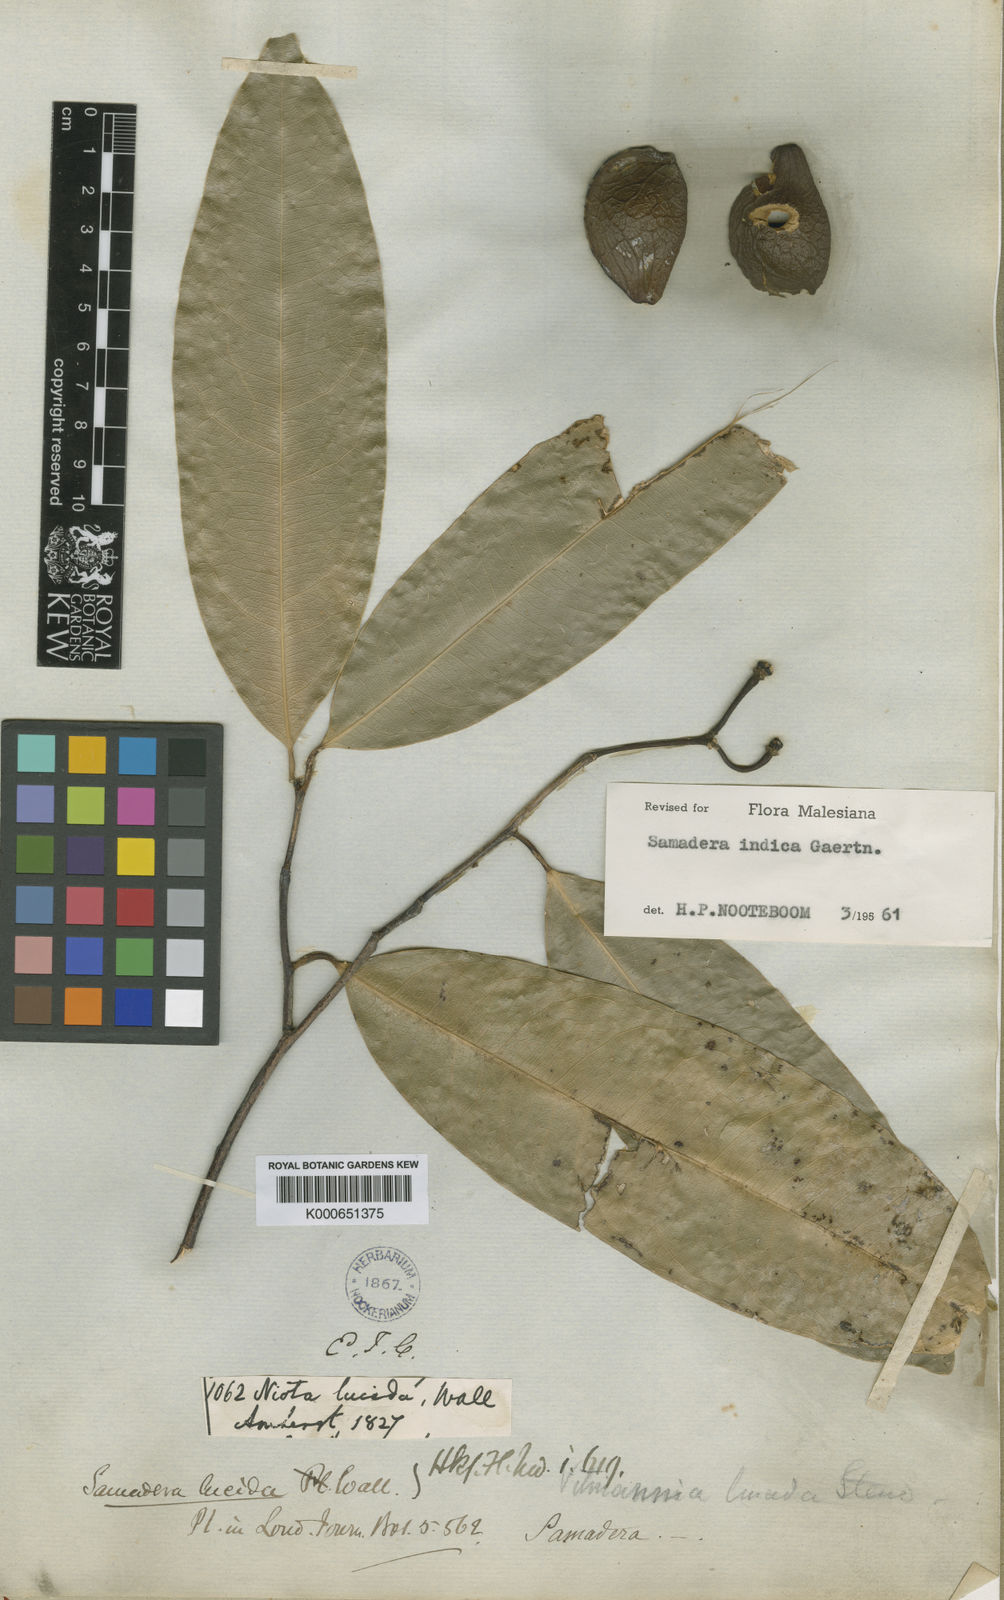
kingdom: Plantae
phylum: Tracheophyta
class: Magnoliopsida
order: Sapindales
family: Simaroubaceae
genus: Samadera
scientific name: Samadera indica
